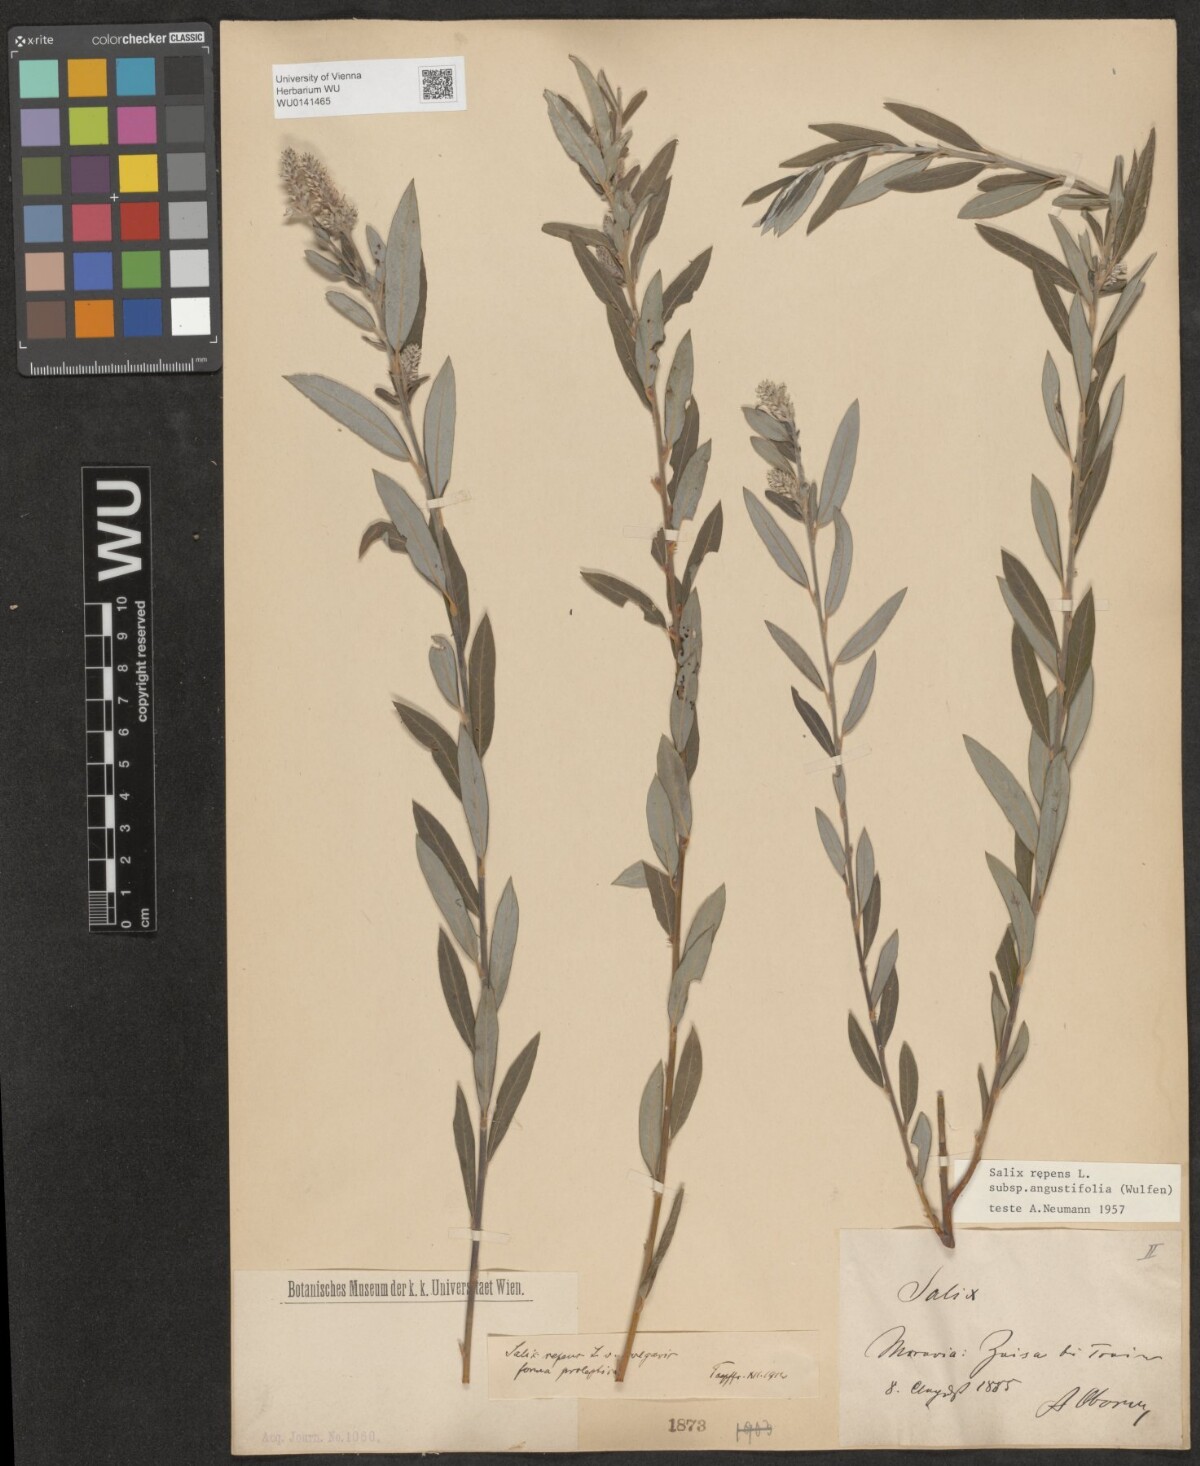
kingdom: Plantae
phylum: Tracheophyta
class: Magnoliopsida
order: Malpighiales
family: Salicaceae
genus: Salix
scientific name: Salix rosmarinifolia
